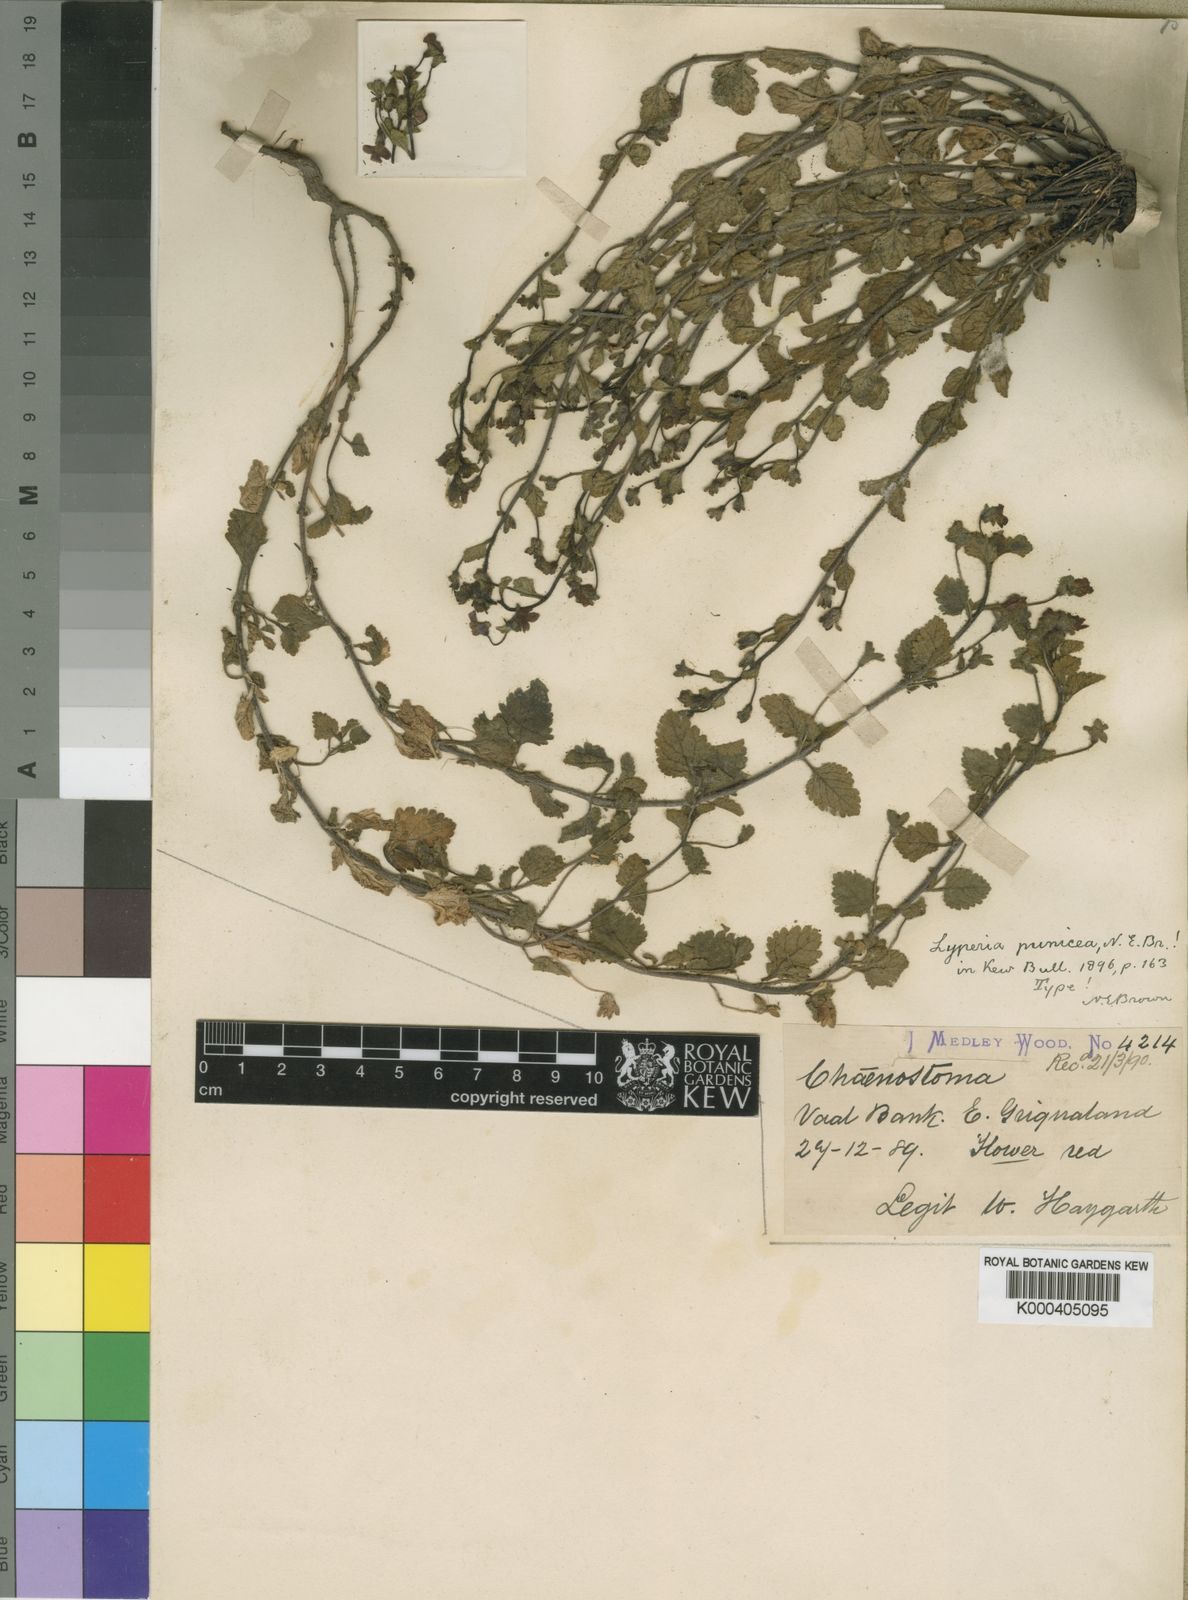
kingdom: Plantae
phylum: Tracheophyta
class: Magnoliopsida
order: Lamiales
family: Scrophulariaceae
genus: Jamesbrittenia
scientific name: Jamesbrittenia breviflora
